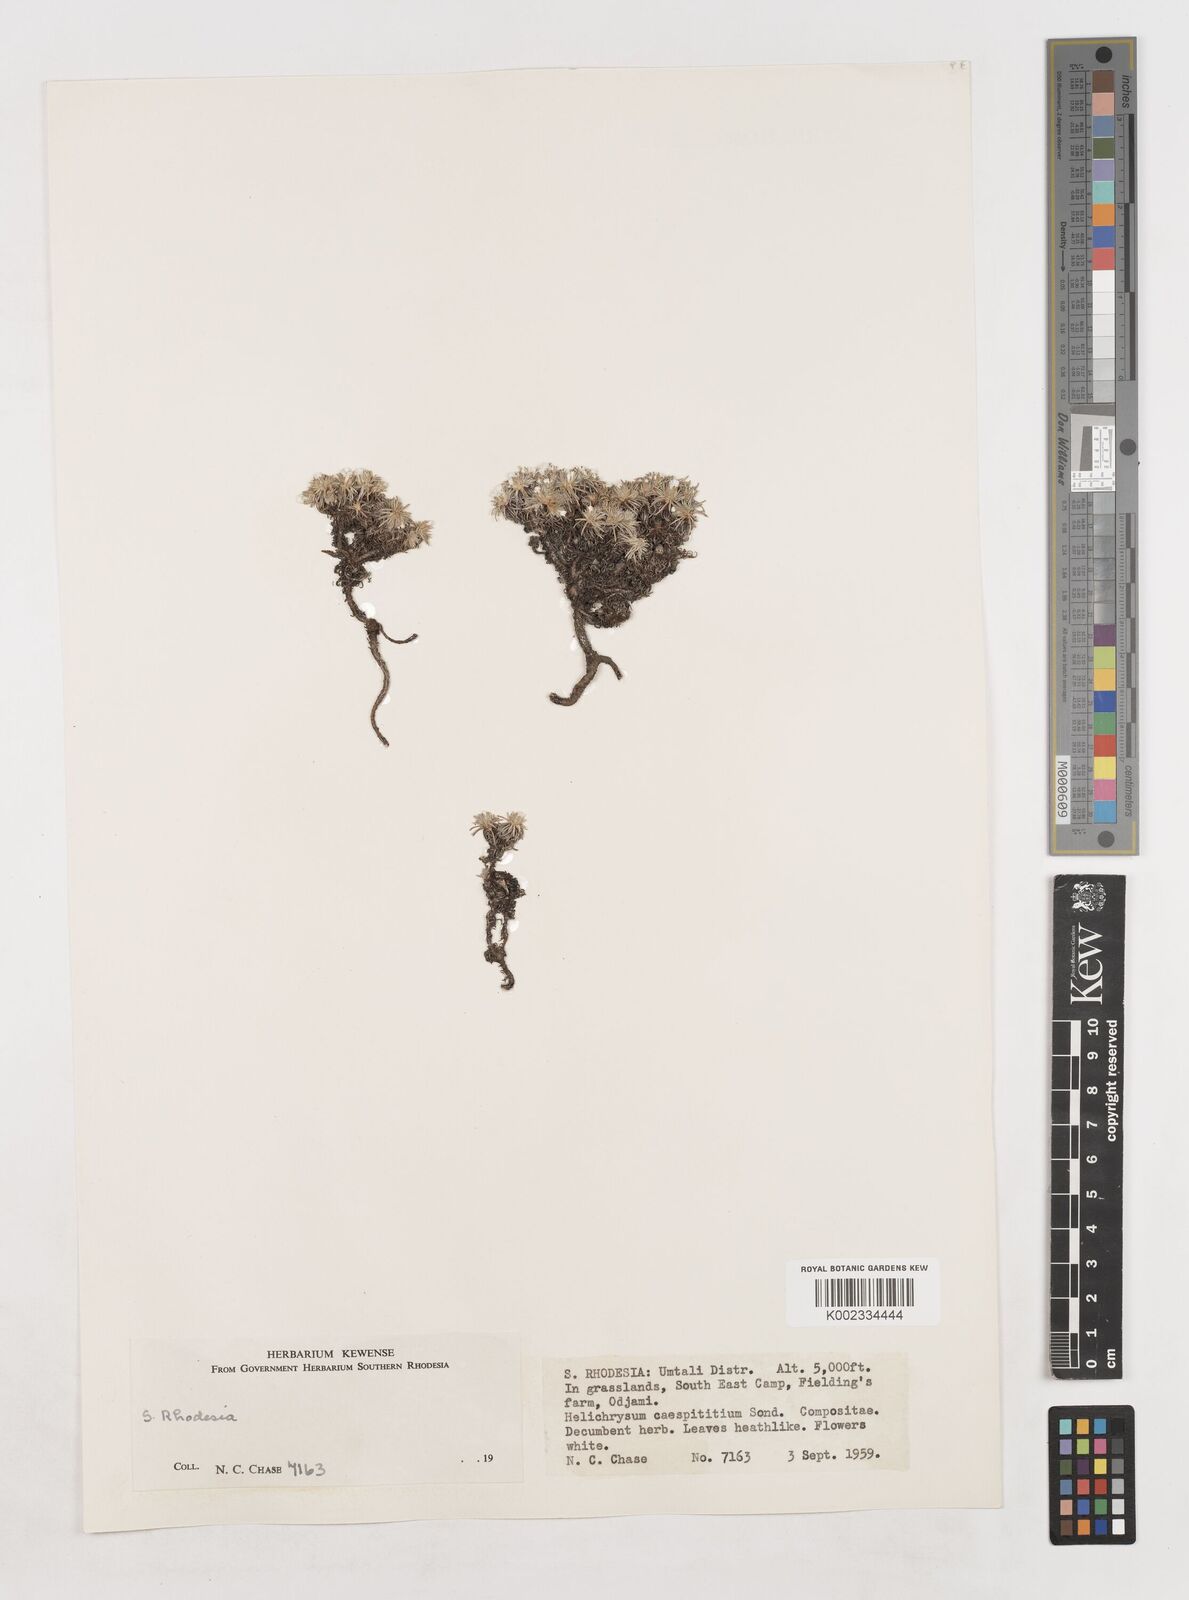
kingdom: Plantae
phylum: Tracheophyta
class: Magnoliopsida
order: Asterales
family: Asteraceae
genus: Helichrysum
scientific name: Helichrysum caespititium
